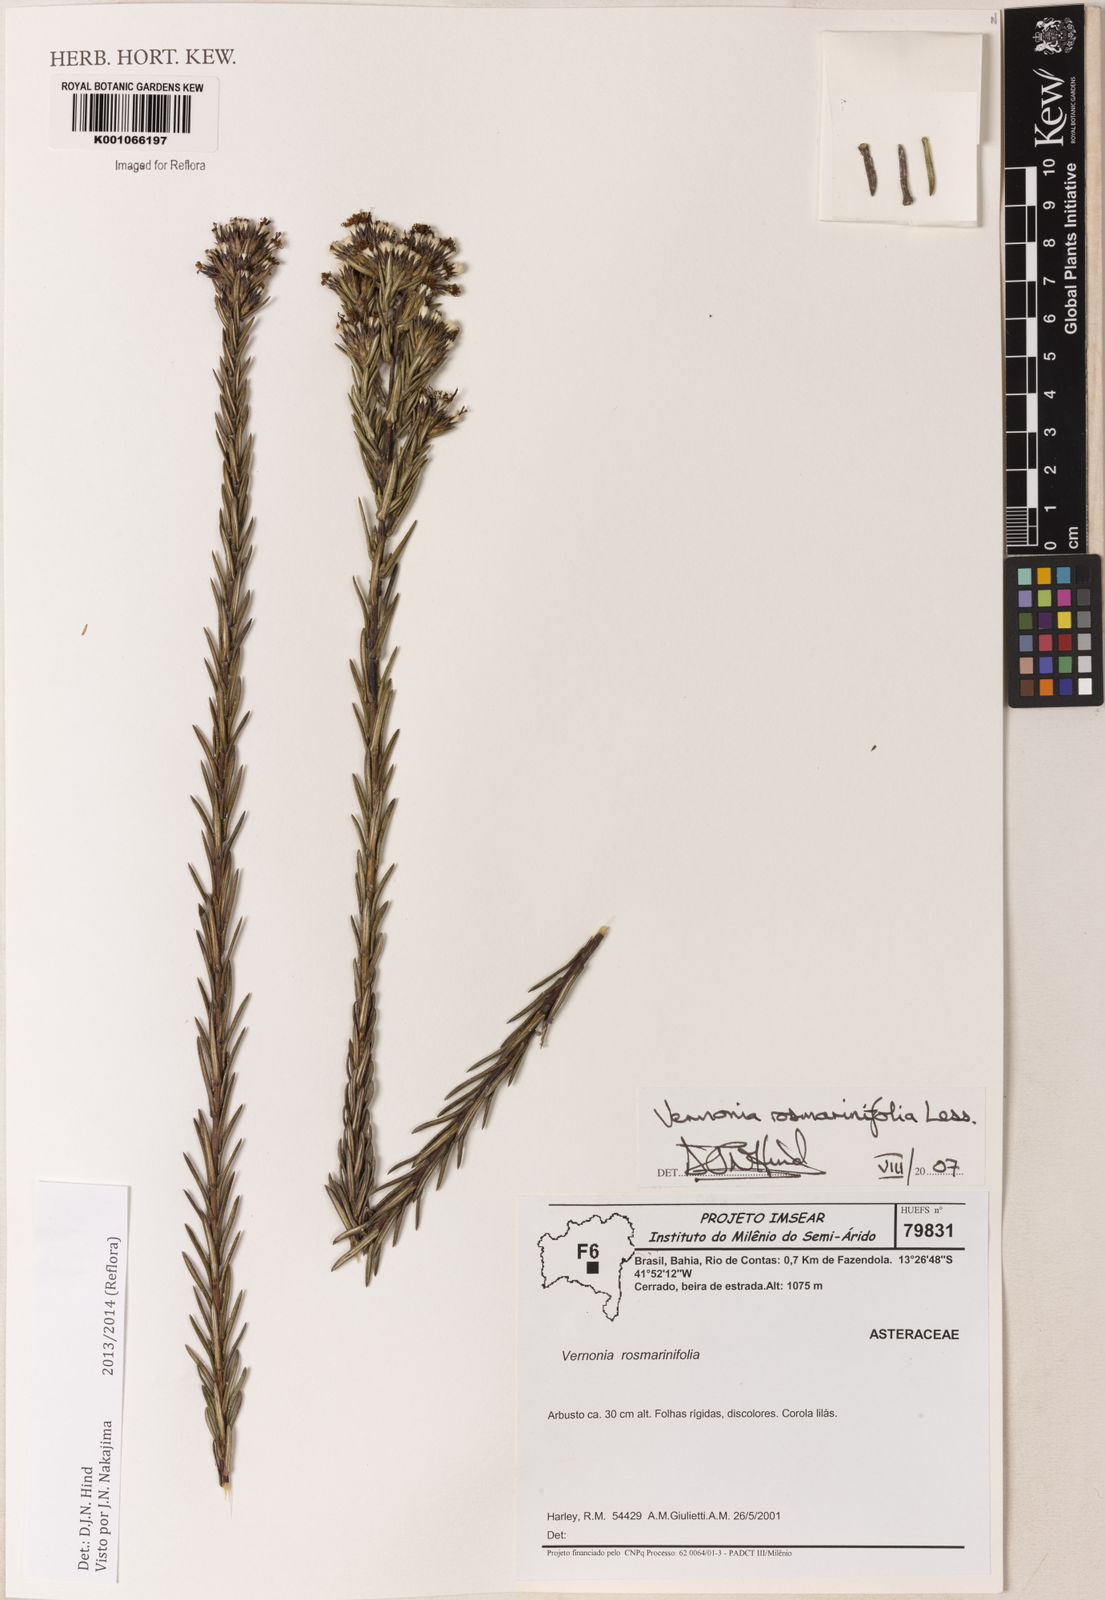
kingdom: Plantae
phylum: Tracheophyta
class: Magnoliopsida
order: Asterales
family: Asteraceae
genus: Lessingianthus
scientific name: Lessingianthus rosmarinifolius
